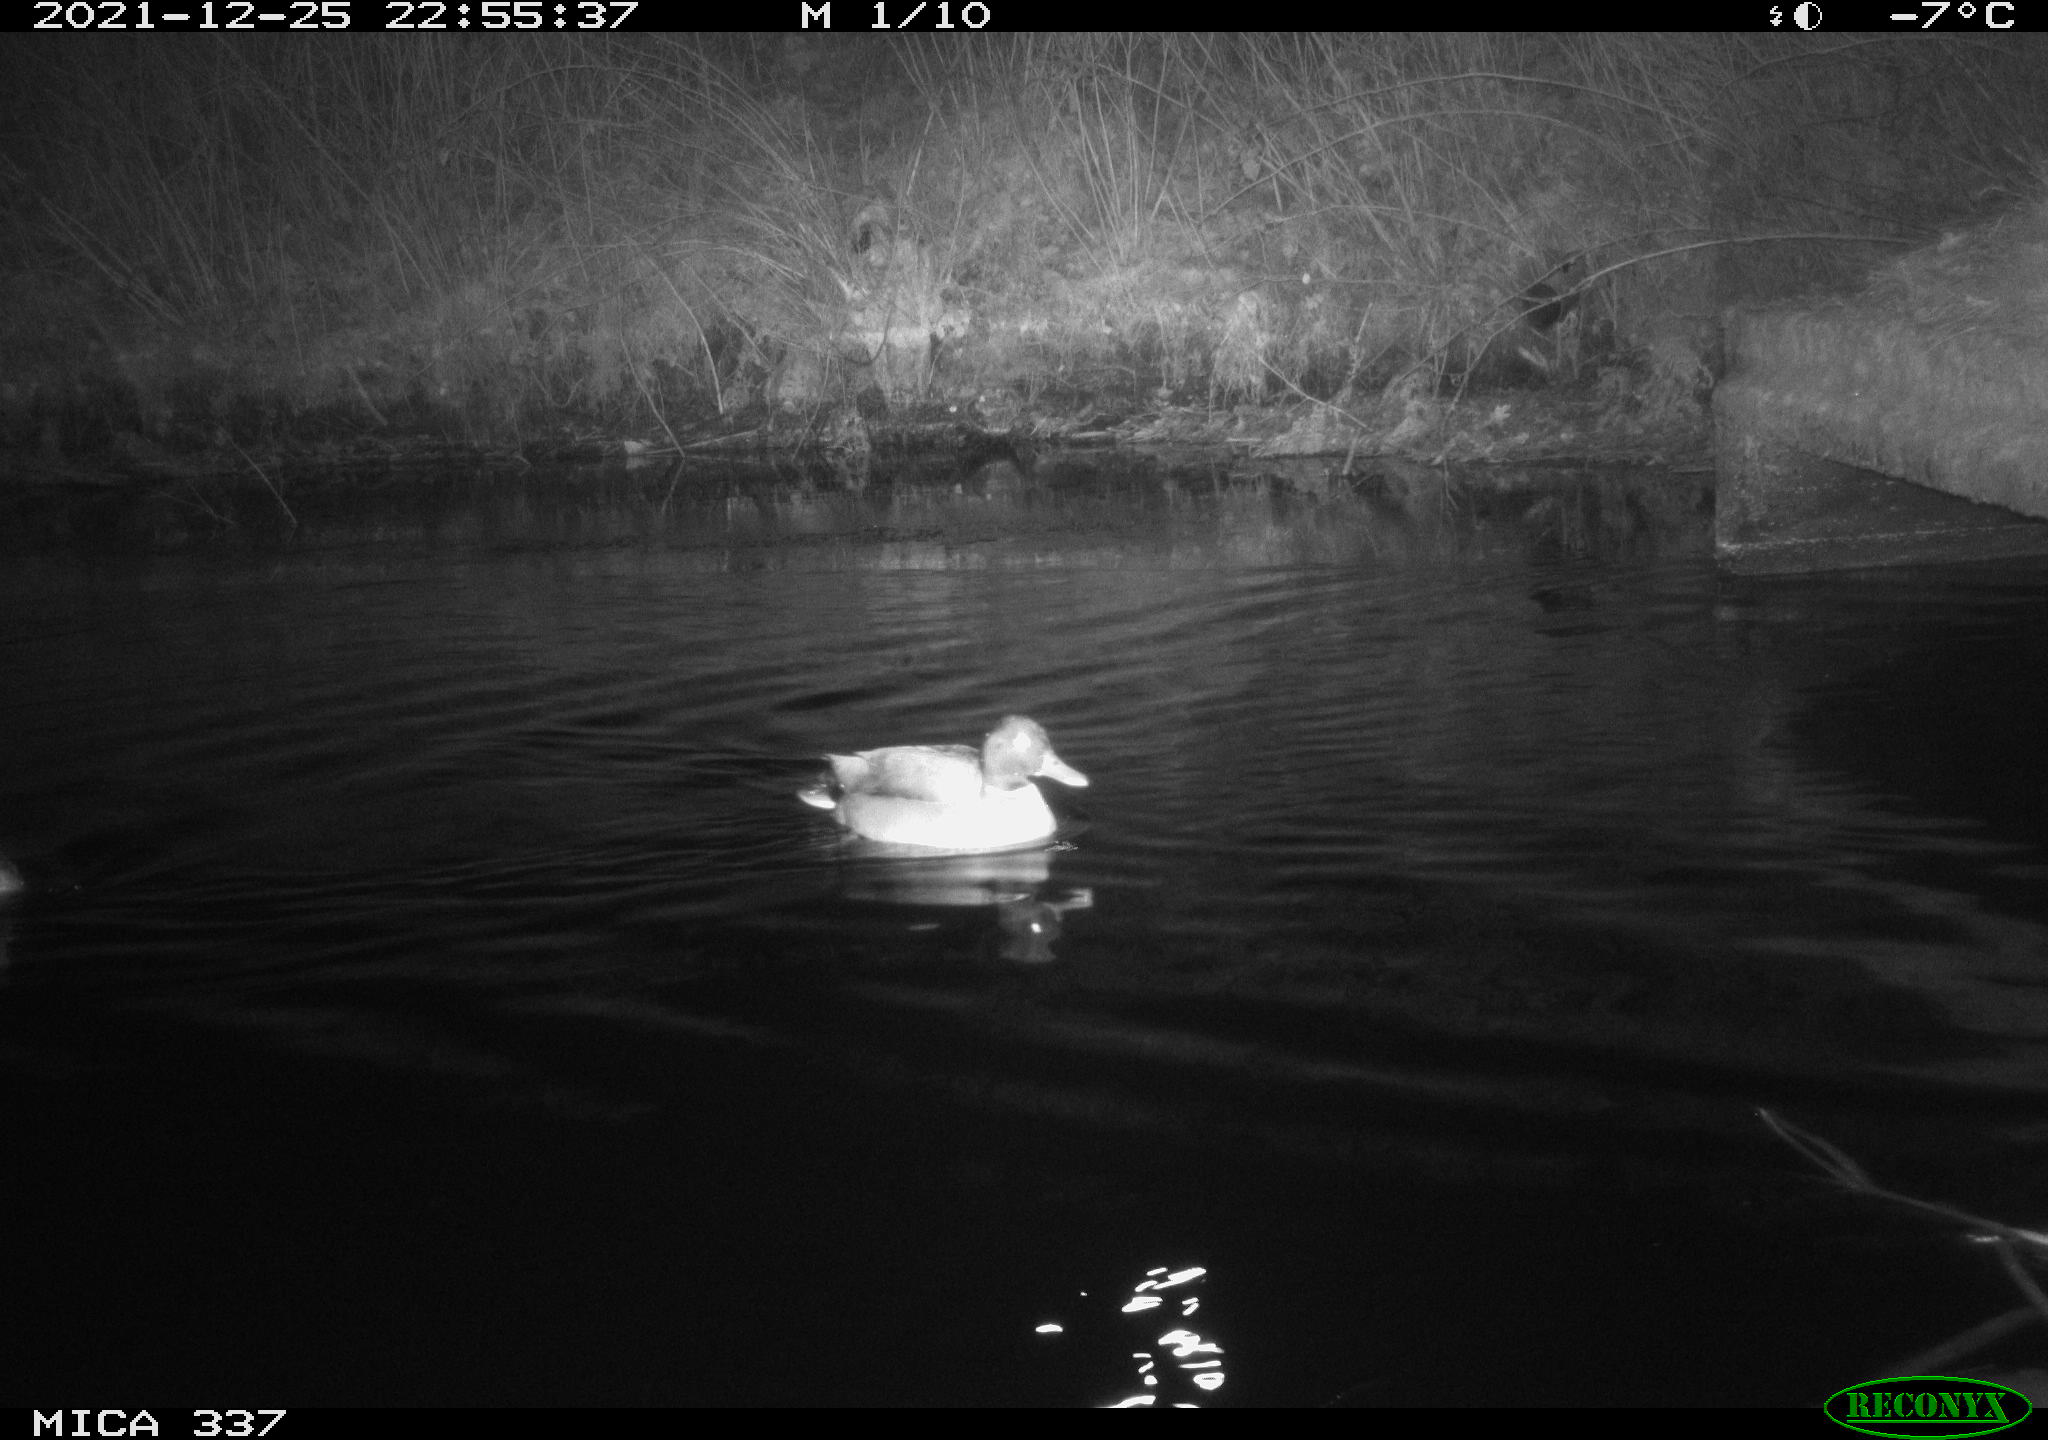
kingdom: Animalia
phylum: Chordata
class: Aves
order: Anseriformes
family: Anatidae
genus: Anas
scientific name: Anas platyrhynchos
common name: Mallard
